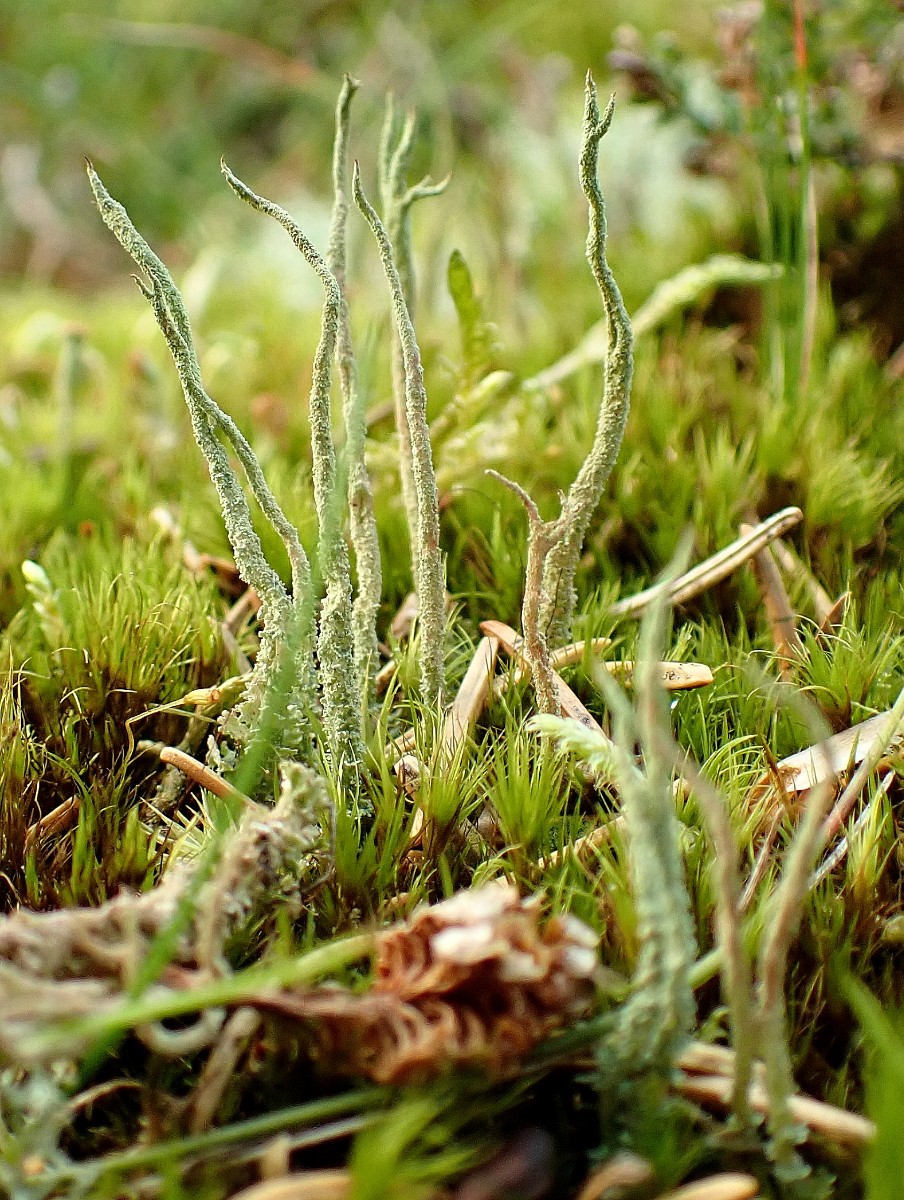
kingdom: Fungi
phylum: Ascomycota
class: Lecanoromycetes
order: Lecanorales
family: Cladoniaceae
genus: Cladonia
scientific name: Cladonia glauca
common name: grågrøn bægerlav
